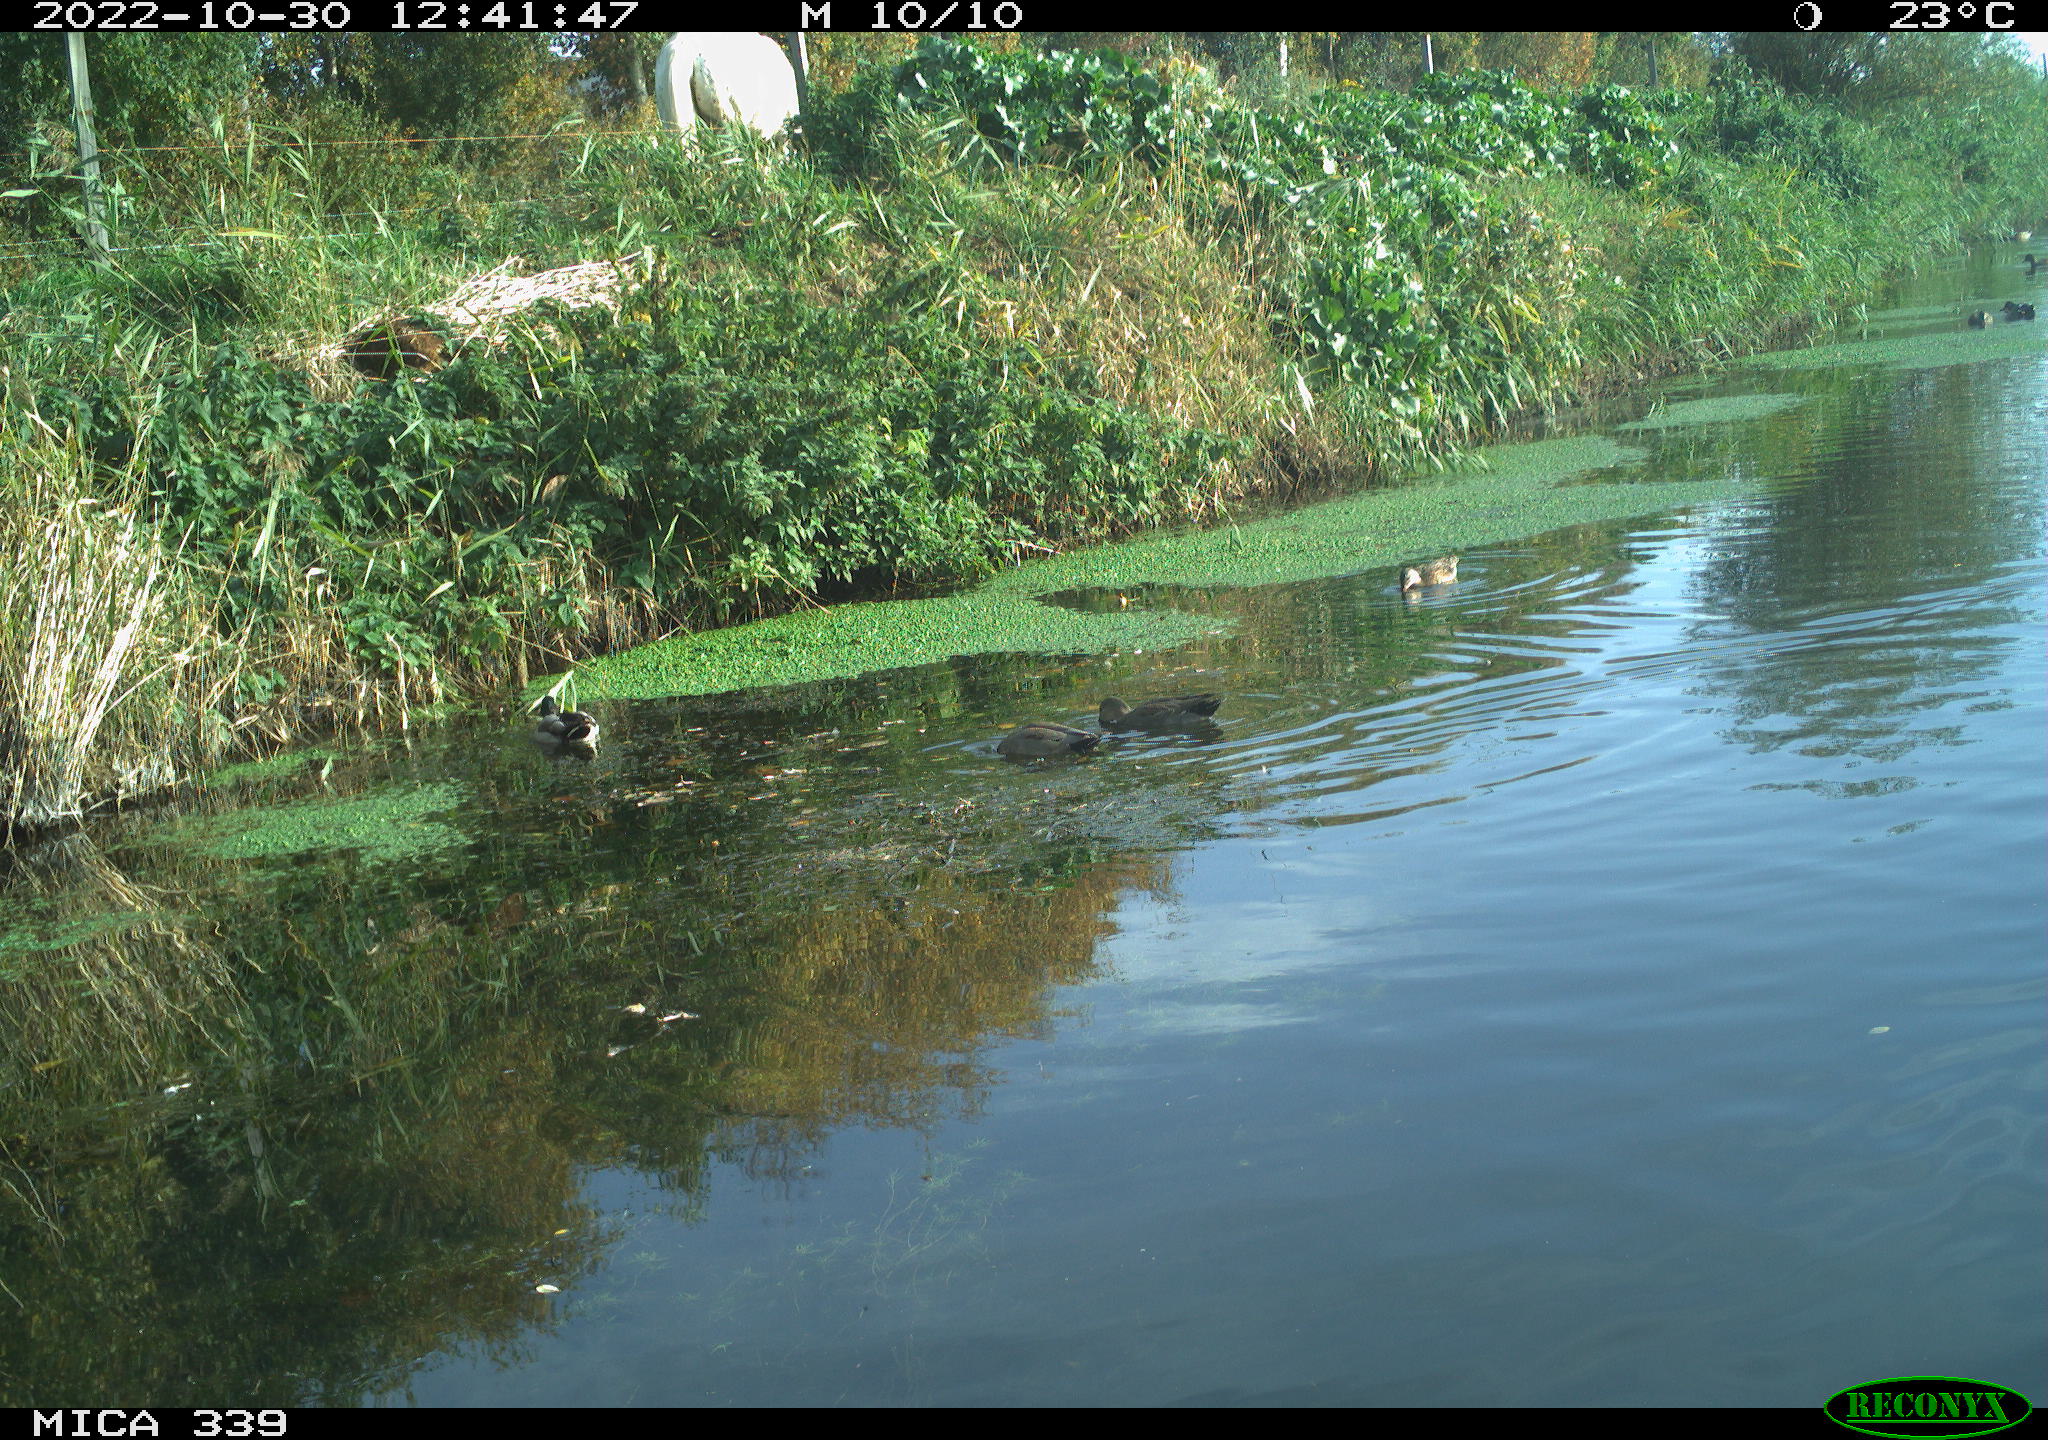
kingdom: Animalia
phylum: Chordata
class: Aves
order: Anseriformes
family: Anatidae
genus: Anas
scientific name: Anas platyrhynchos
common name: Mallard
